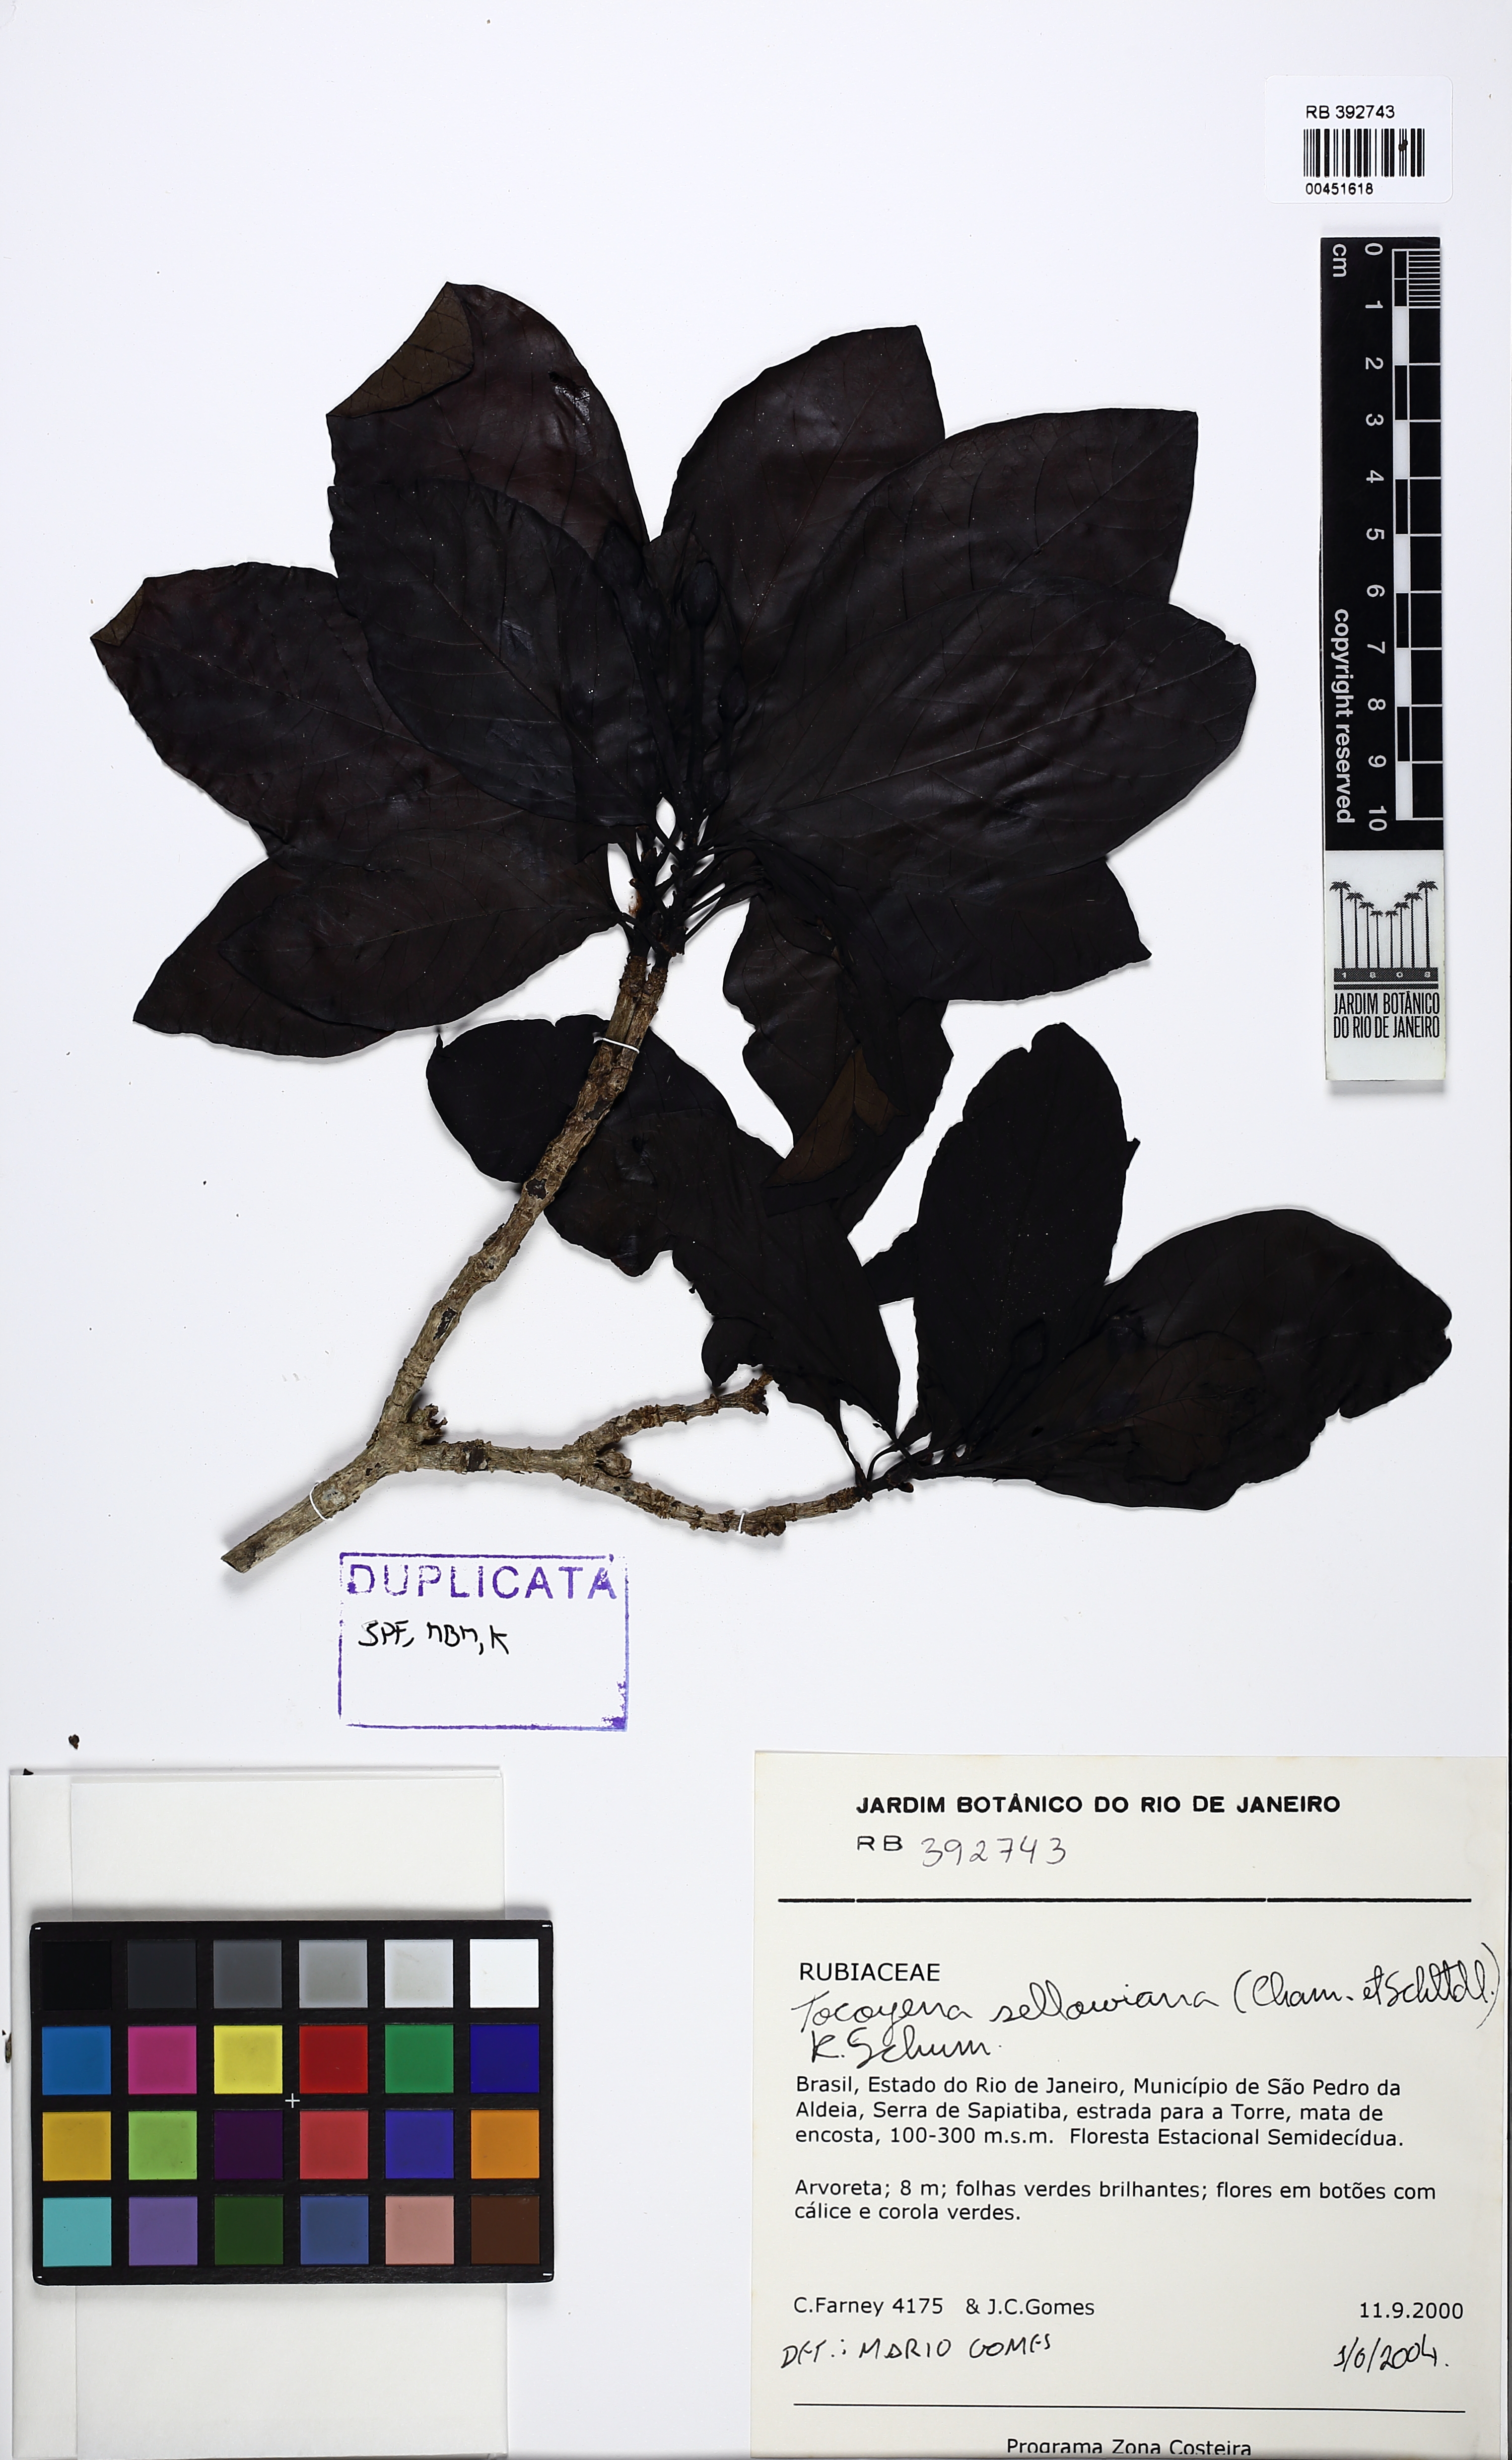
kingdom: Plantae
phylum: Tracheophyta
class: Magnoliopsida
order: Gentianales
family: Rubiaceae
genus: Tocoyena
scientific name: Tocoyena sellowiana
